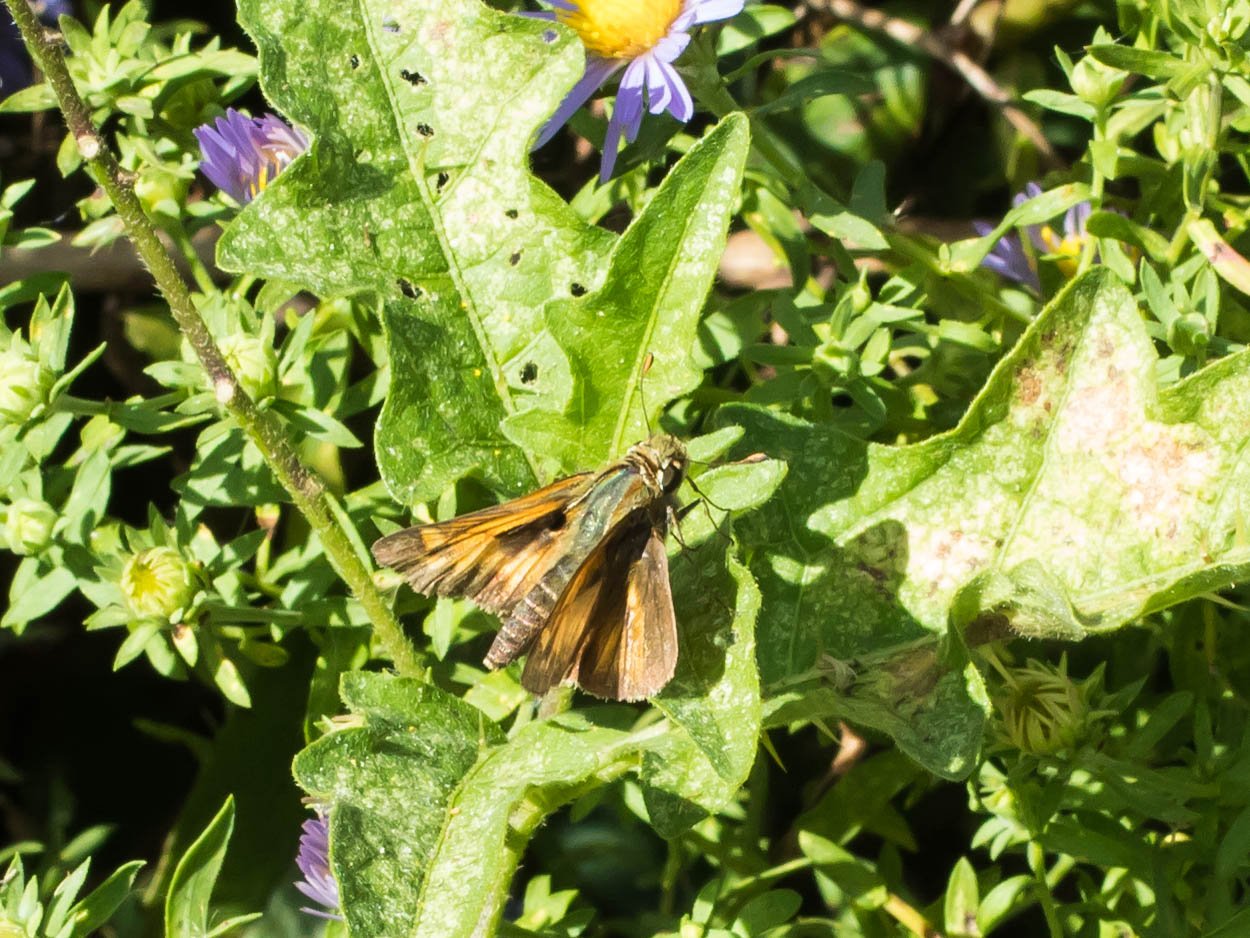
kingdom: Animalia
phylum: Arthropoda
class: Insecta
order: Lepidoptera
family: Hesperiidae
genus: Atalopedes
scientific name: Atalopedes campestris
